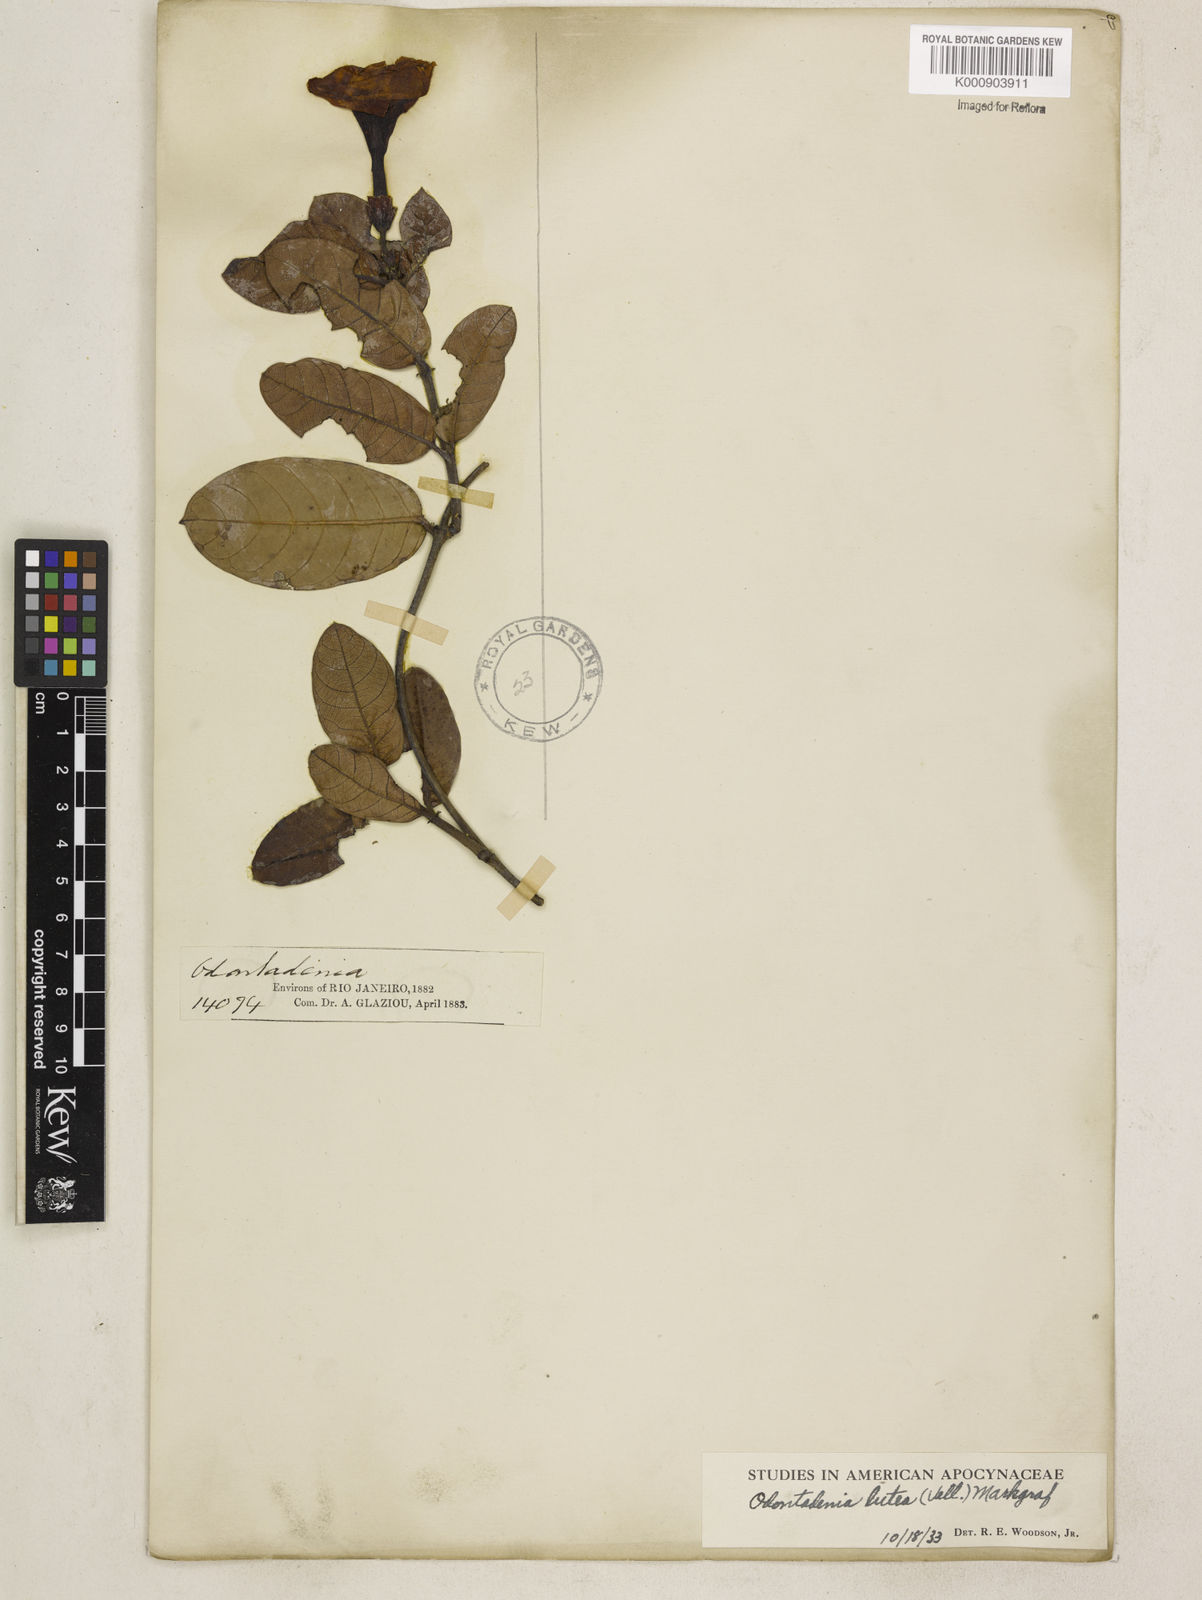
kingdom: Plantae
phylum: Tracheophyta
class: Magnoliopsida
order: Gentianales
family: Apocynaceae
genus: Odontadenia
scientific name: Odontadenia lutea
